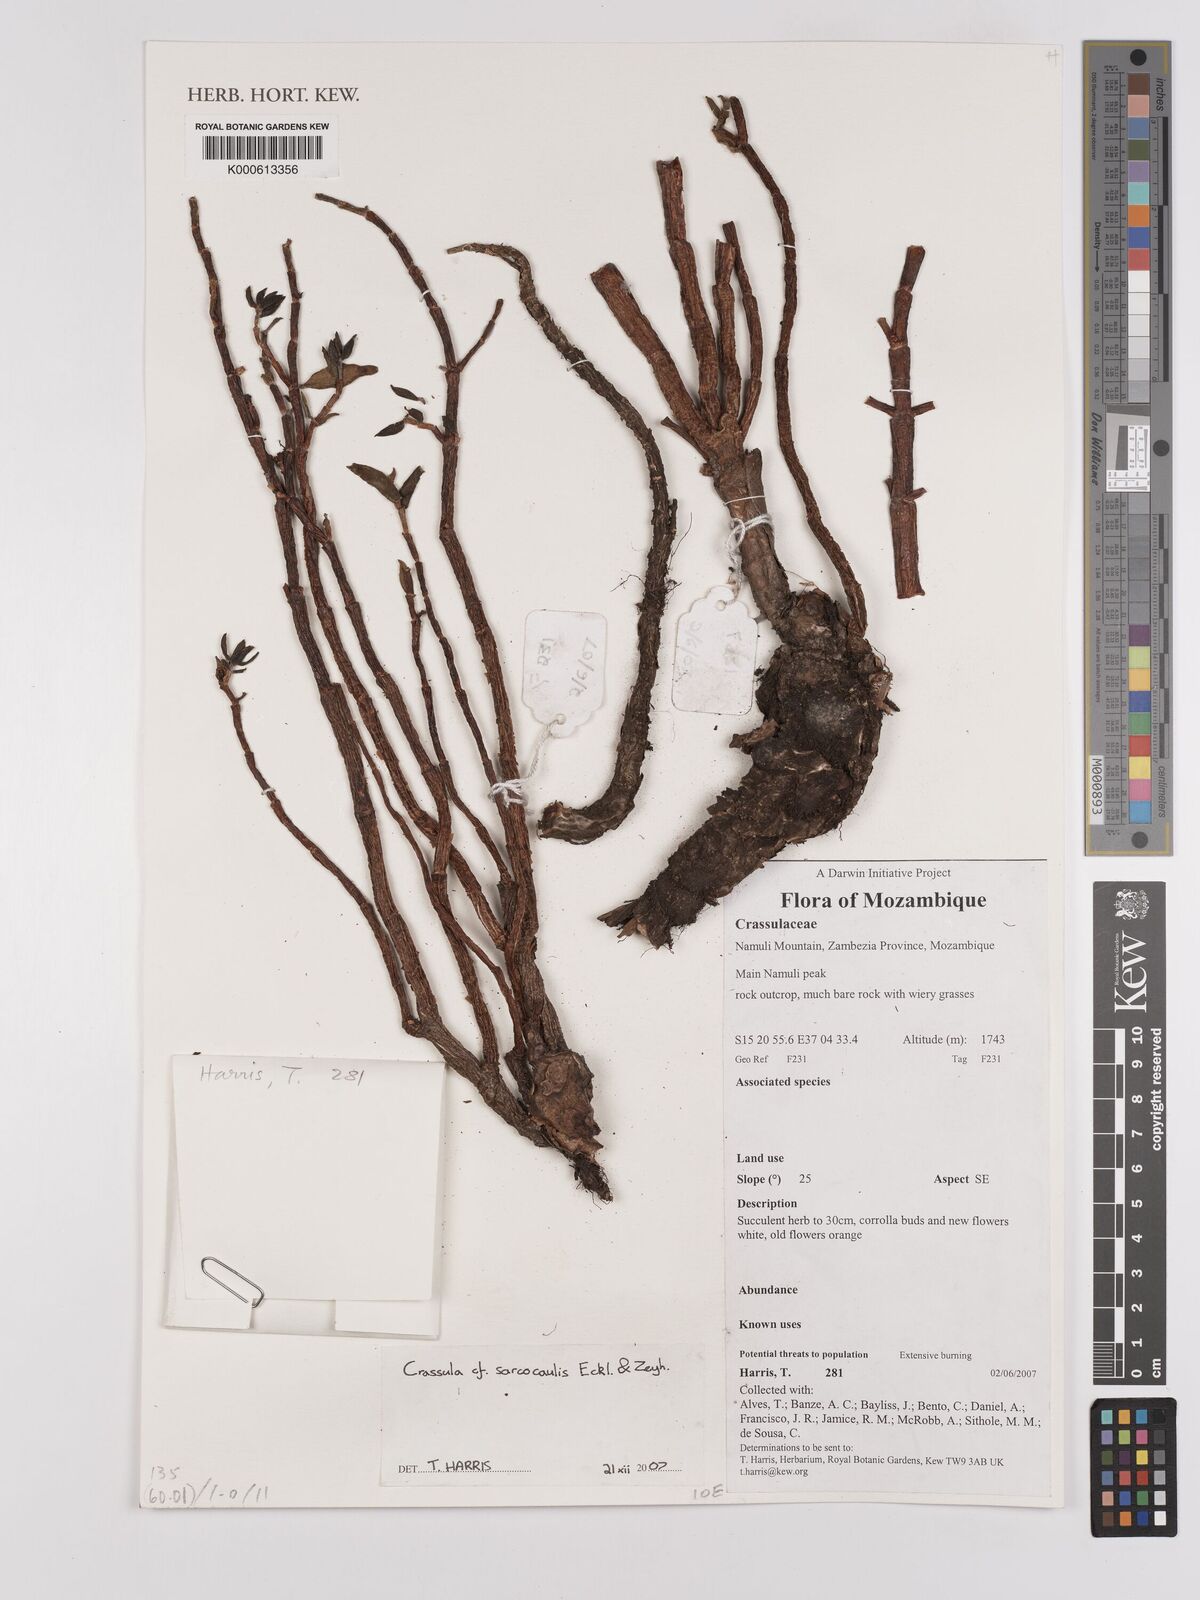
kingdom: Plantae
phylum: Tracheophyta
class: Magnoliopsida
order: Saxifragales
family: Crassulaceae
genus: Crassula
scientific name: Crassula sarcocaulis
